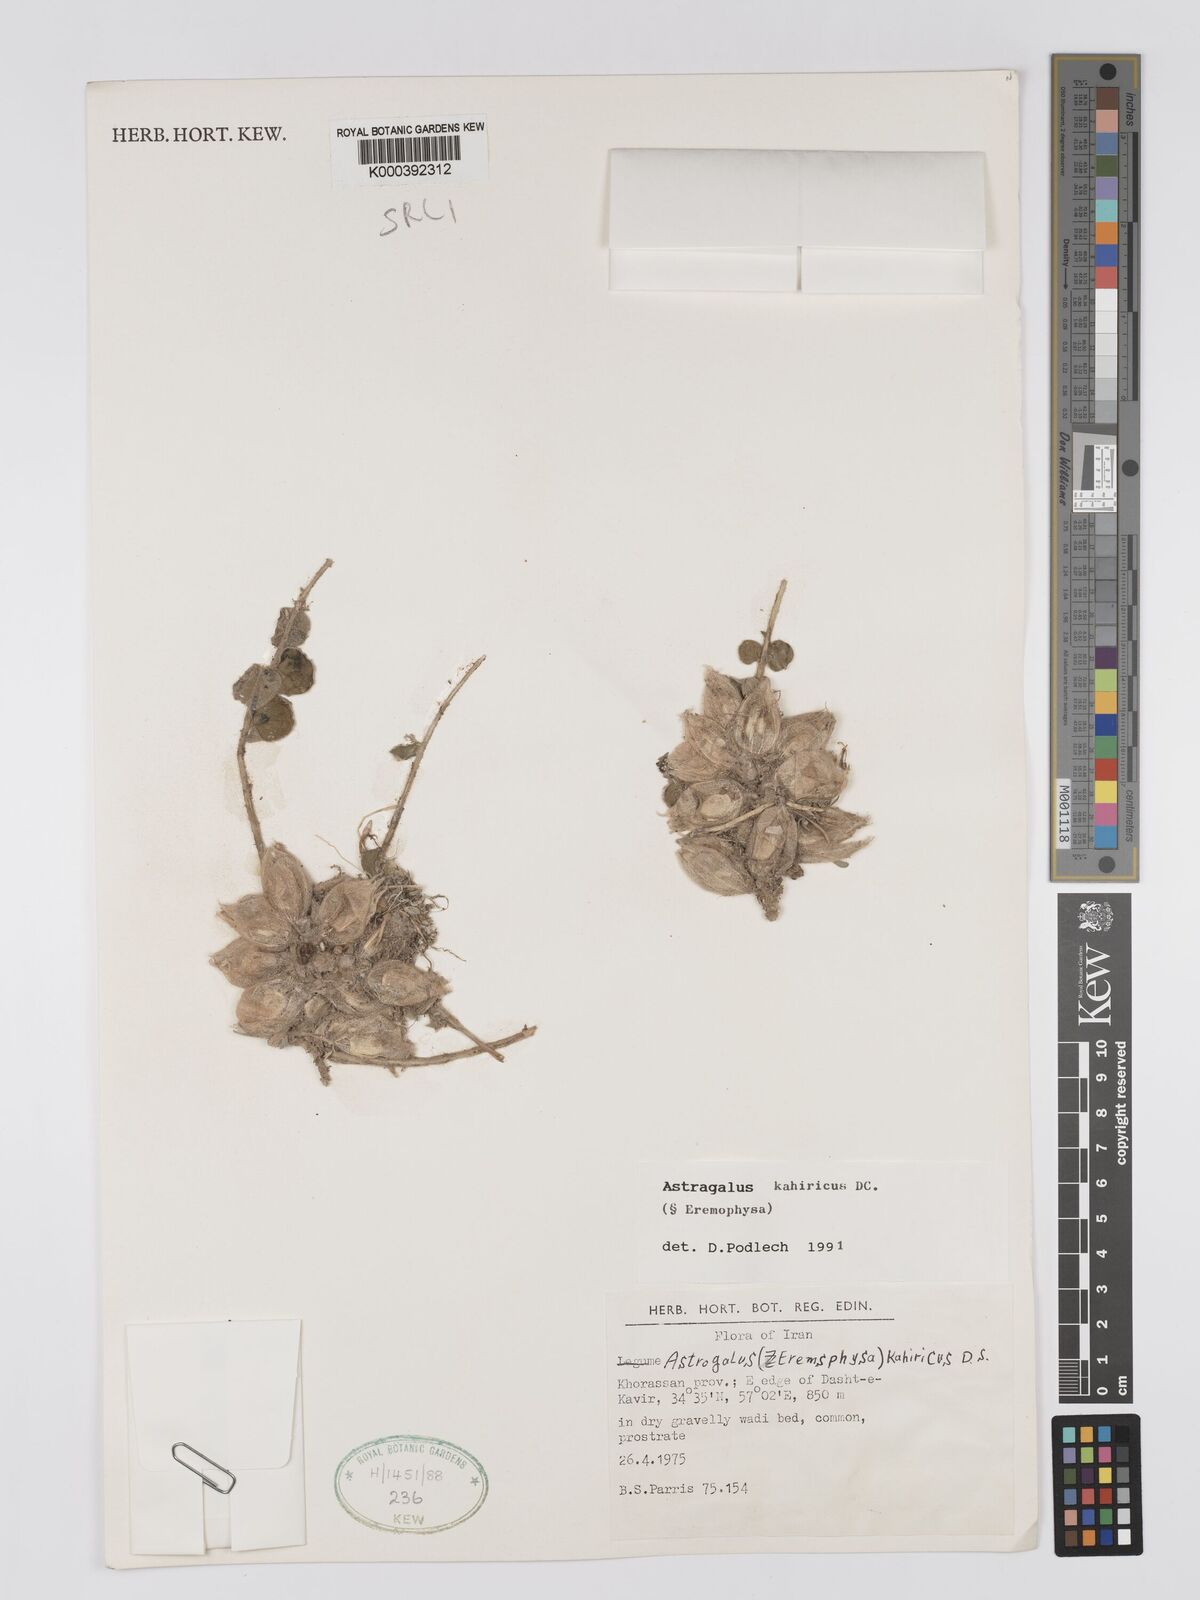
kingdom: Plantae
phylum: Tracheophyta
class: Magnoliopsida
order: Fabales
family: Fabaceae
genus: Astragalus
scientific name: Astragalus kahiricus
